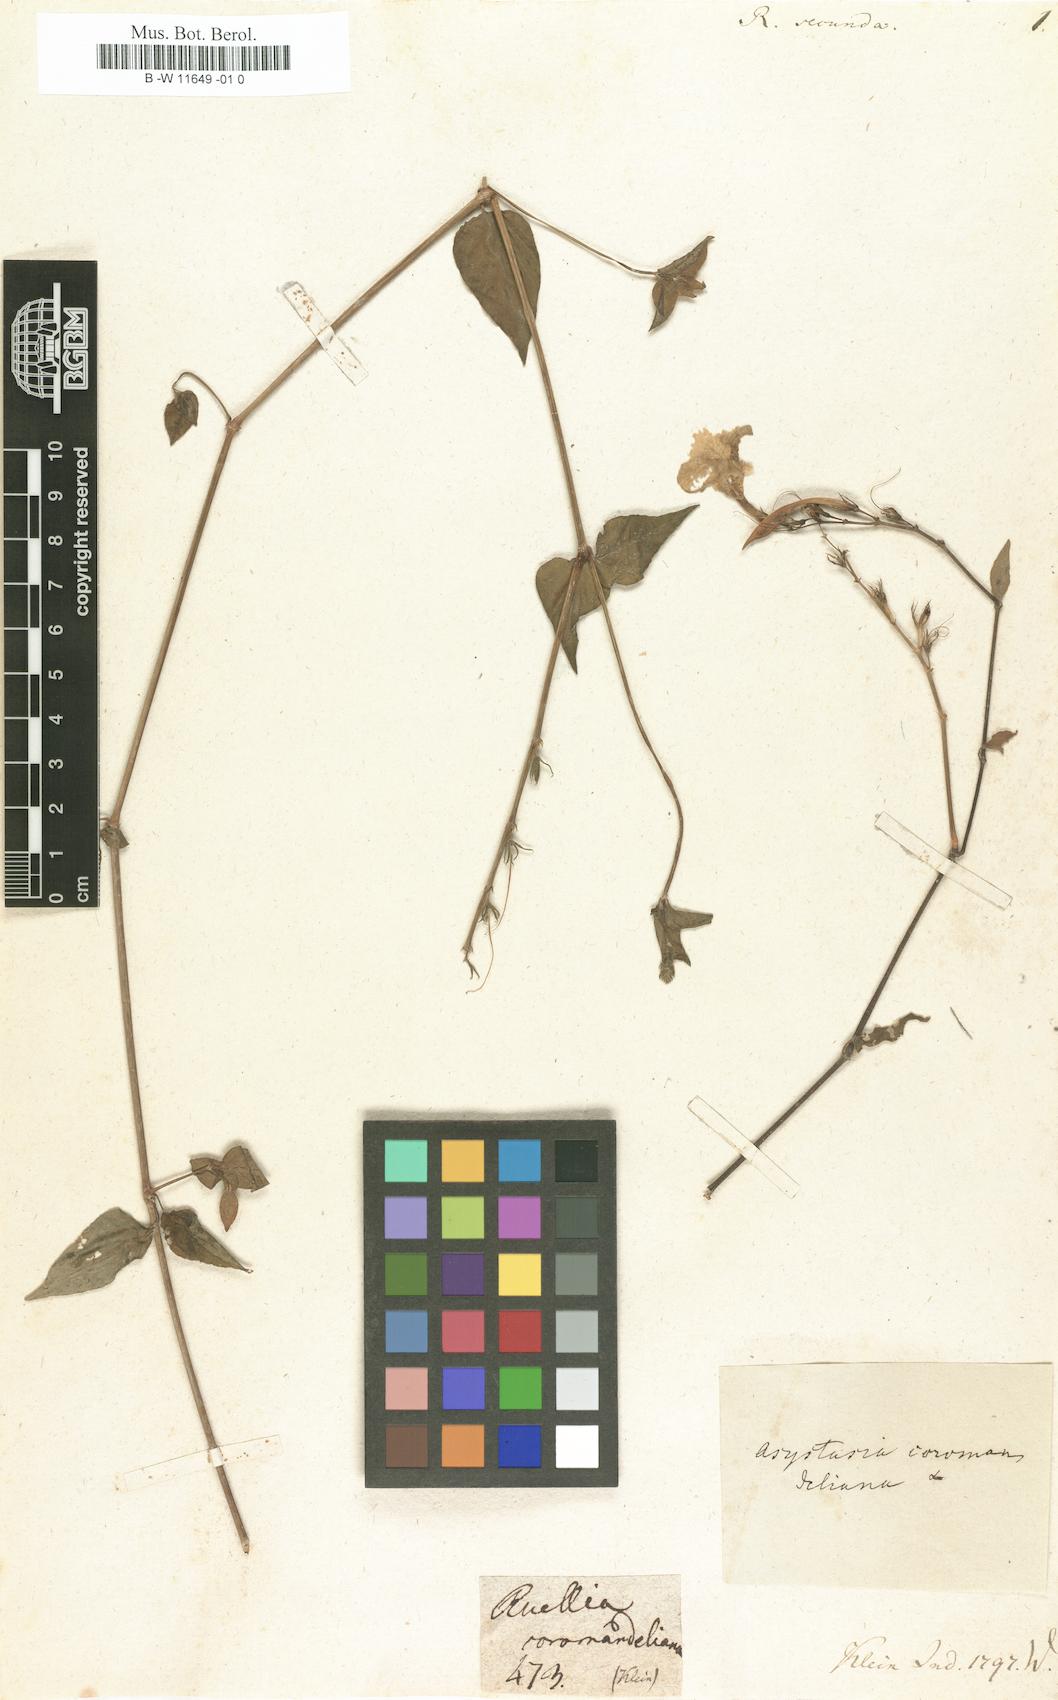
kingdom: Plantae
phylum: Tracheophyta
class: Magnoliopsida
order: Lamiales
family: Acanthaceae
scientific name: Acanthaceae
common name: Acanthaceae
